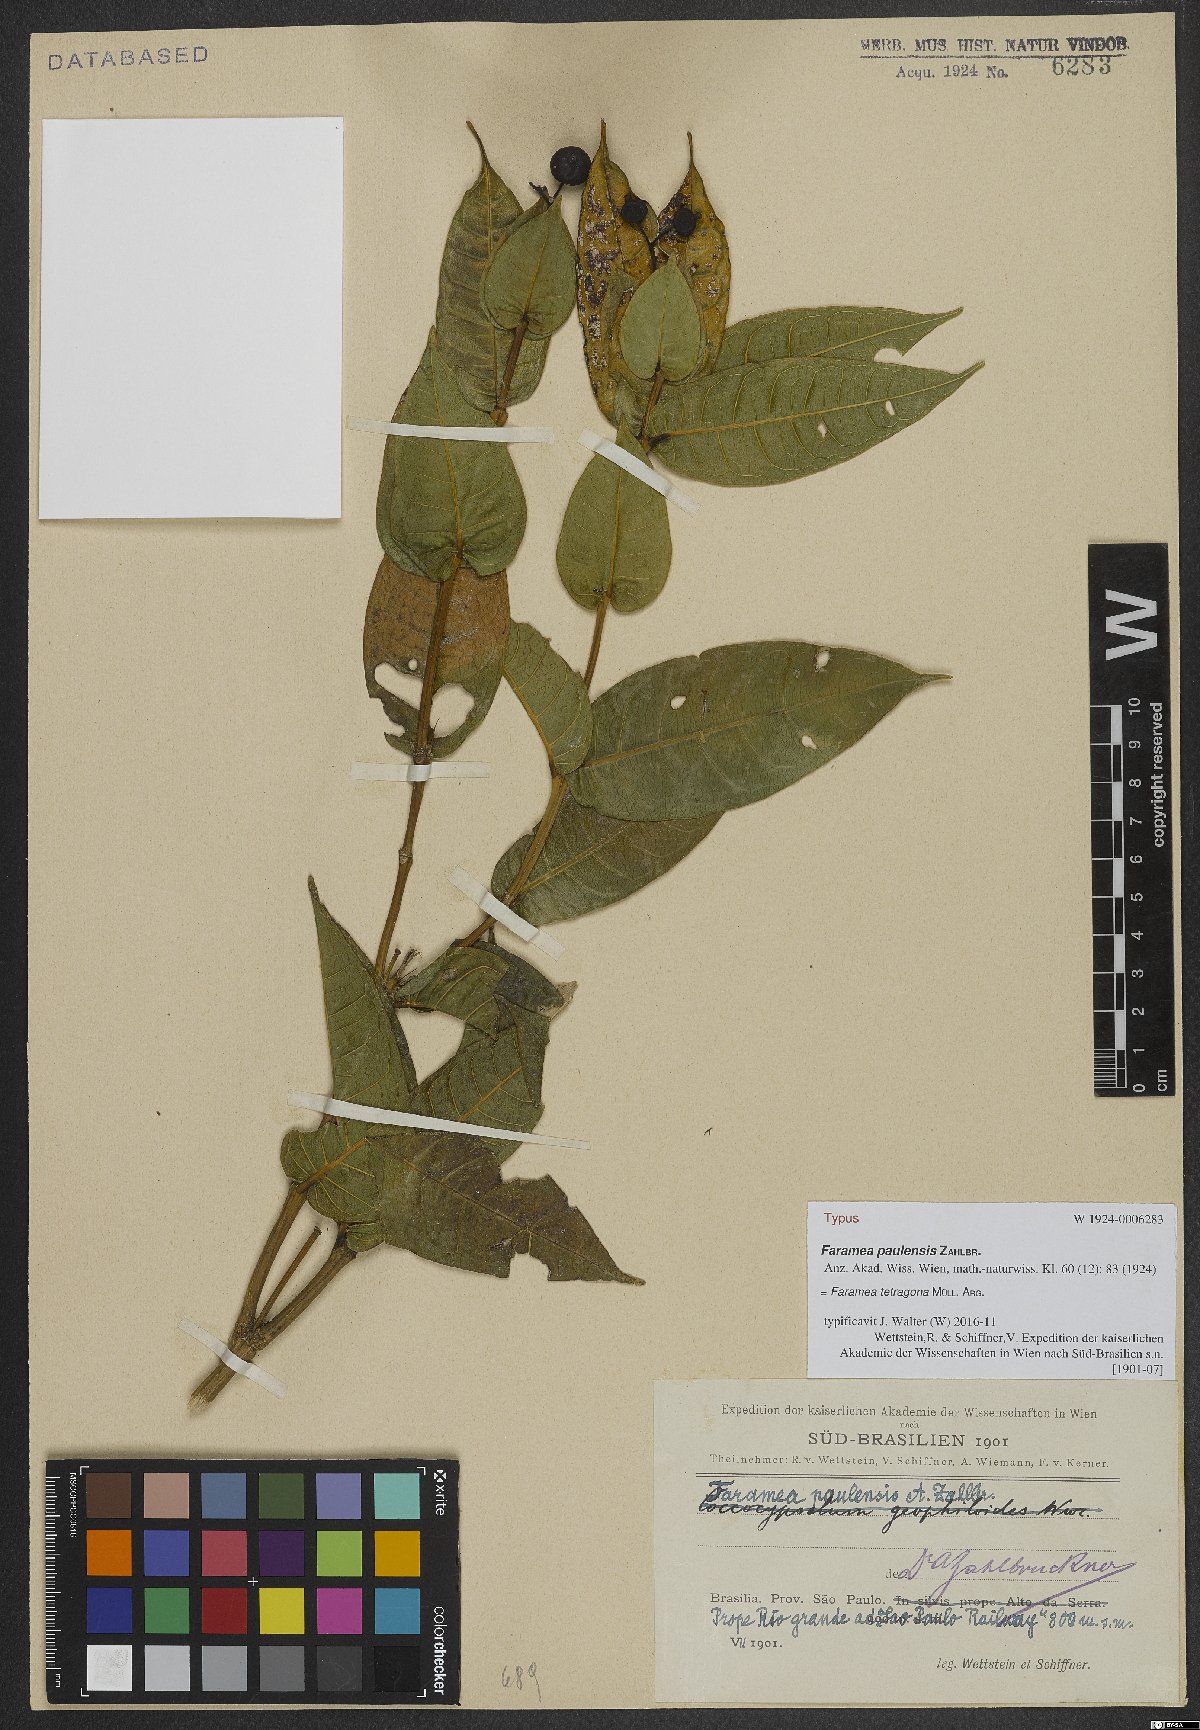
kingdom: Plantae
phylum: Tracheophyta
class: Magnoliopsida
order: Gentianales
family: Rubiaceae
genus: Faramea
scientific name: Faramea tetragona
